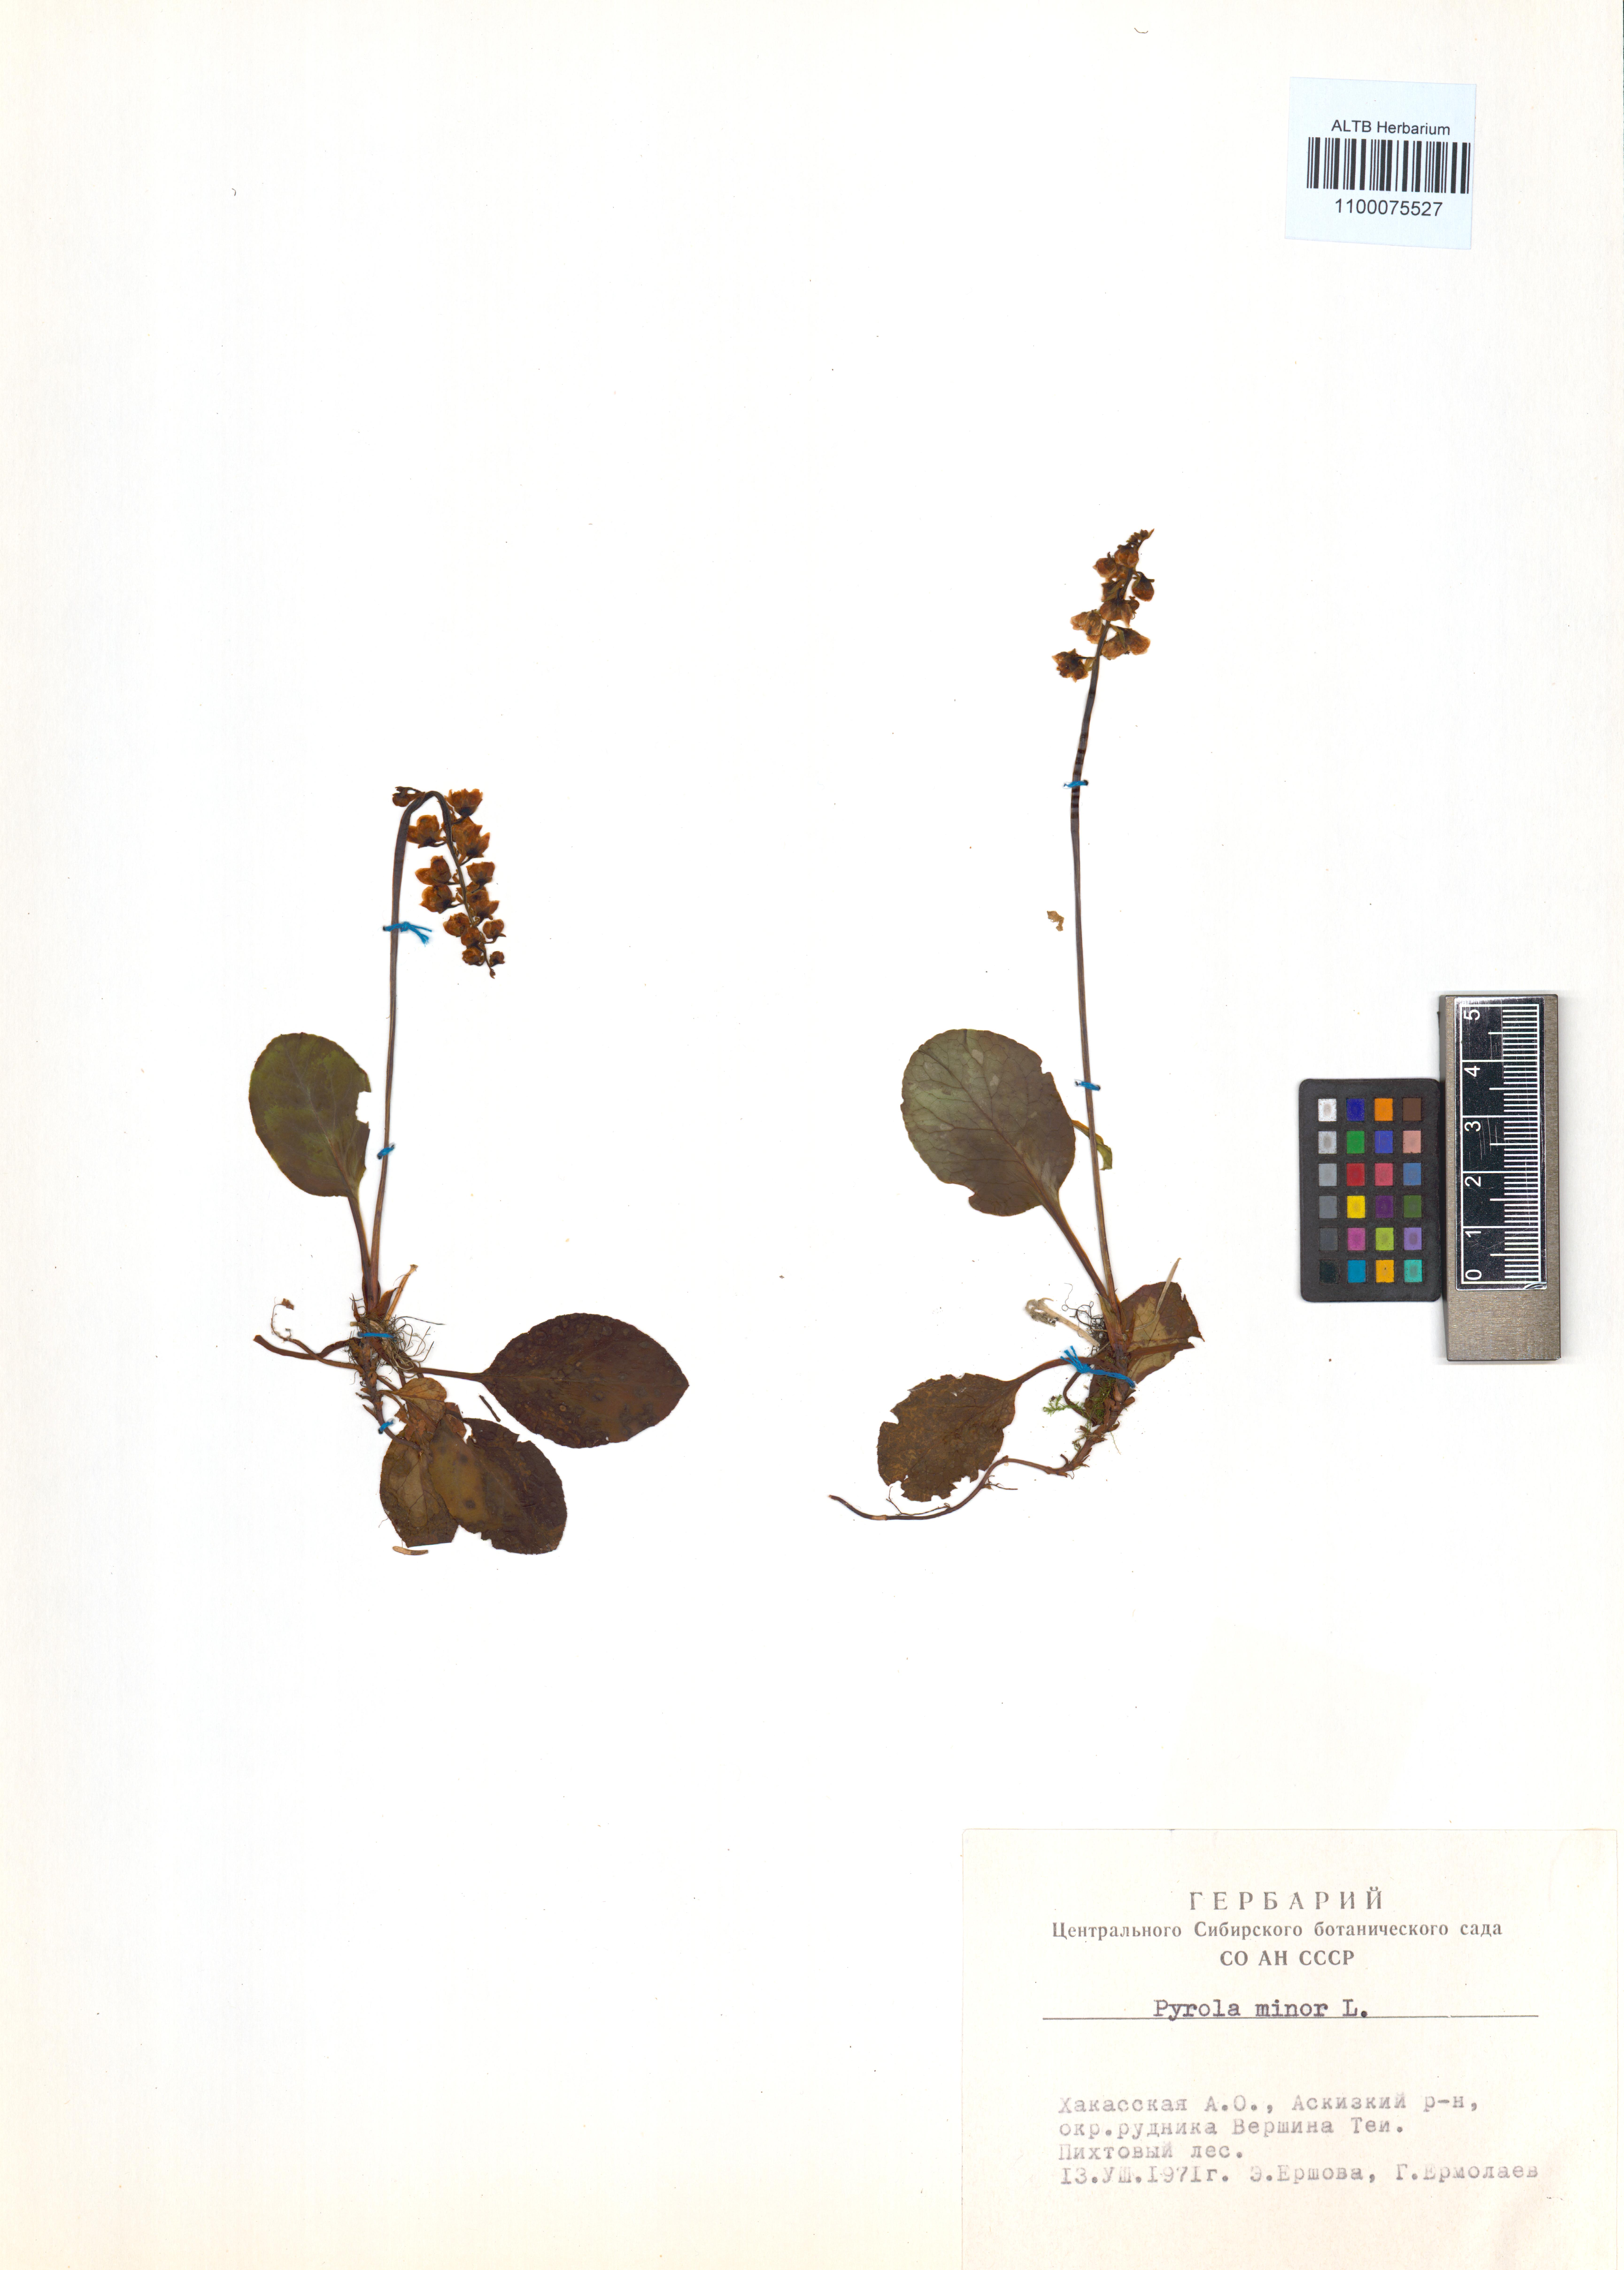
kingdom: Plantae
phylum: Tracheophyta
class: Magnoliopsida
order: Ericales
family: Ericaceae
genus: Pyrola
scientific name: Pyrola minor
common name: Common wintergreen
